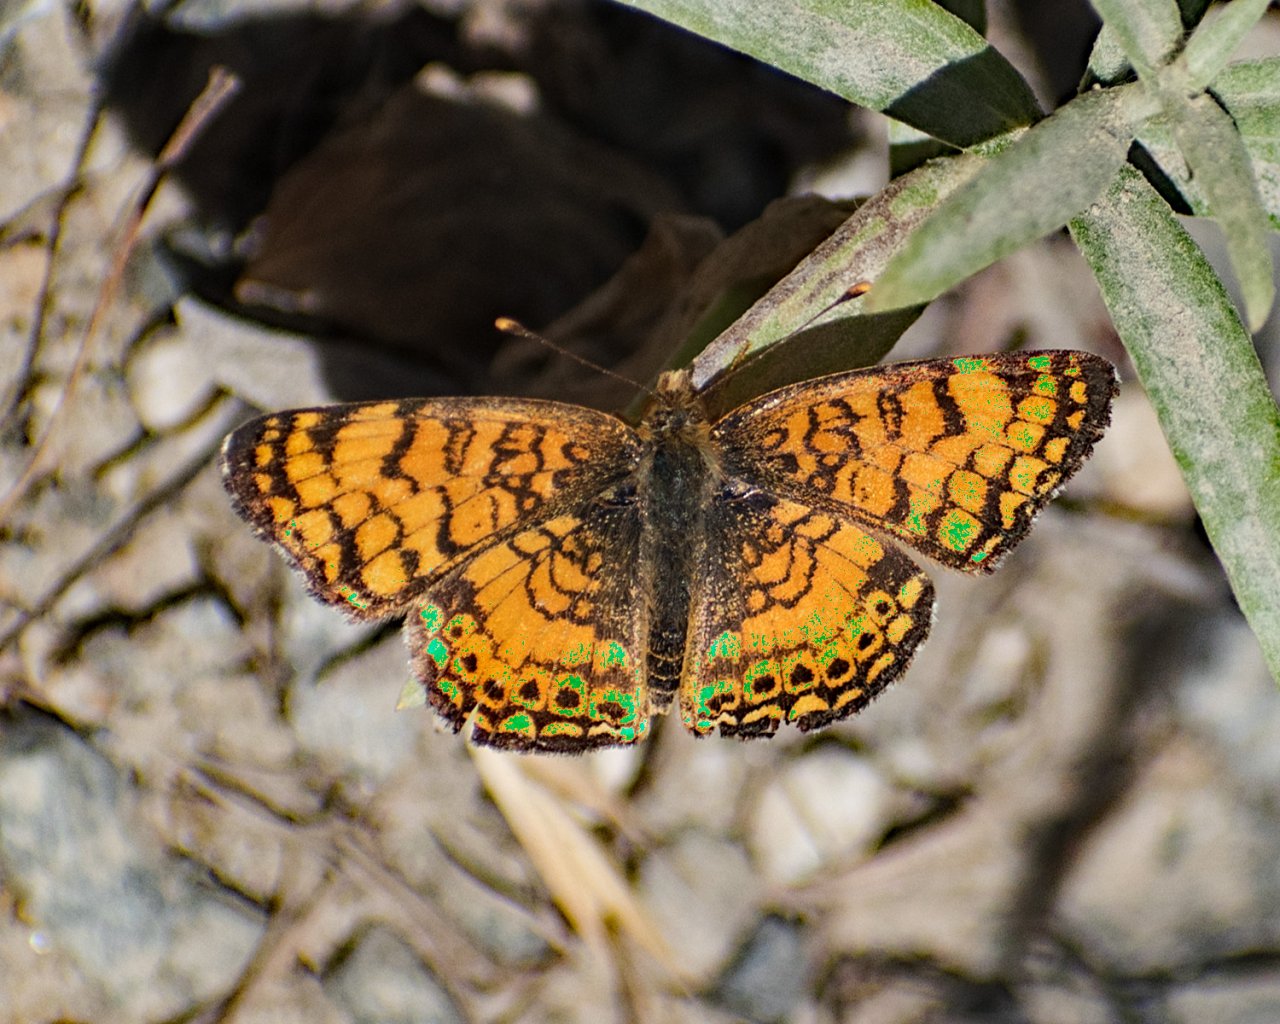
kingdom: Animalia
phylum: Arthropoda
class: Insecta
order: Lepidoptera
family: Nymphalidae
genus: Eresia
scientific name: Eresia aveyrona
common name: Mylitta Crescent
